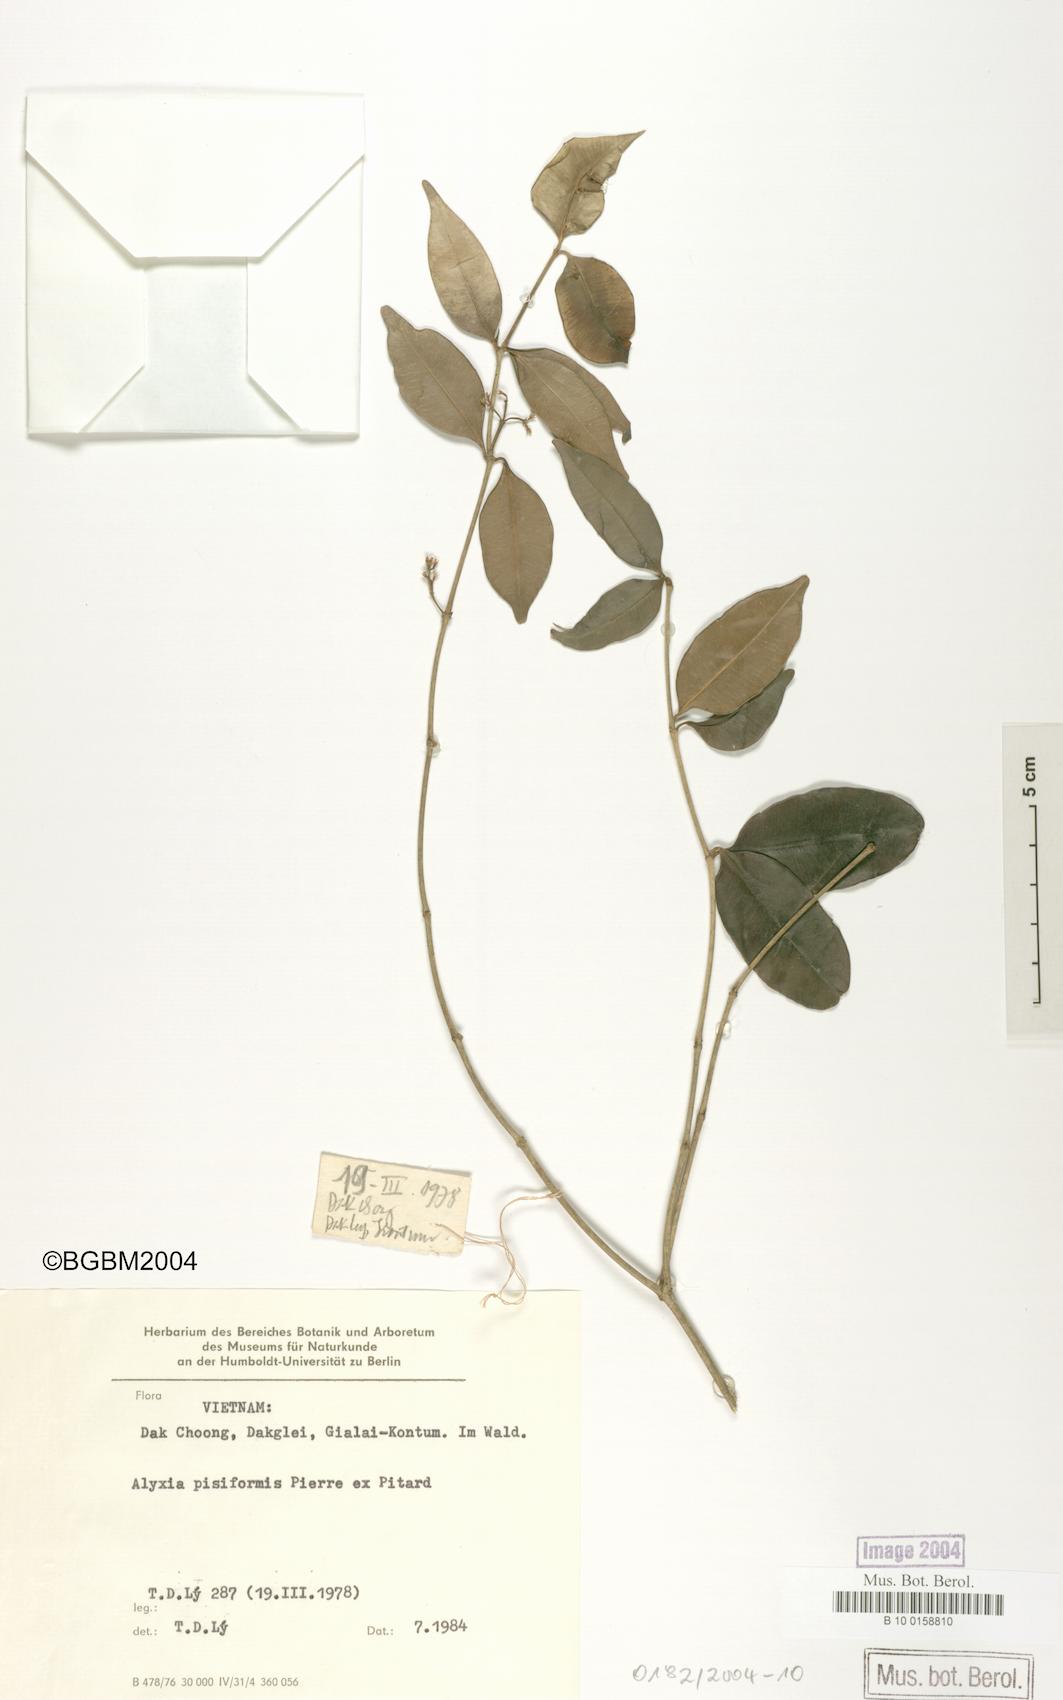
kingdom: Plantae
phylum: Tracheophyta
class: Magnoliopsida
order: Gentianales
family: Apocynaceae
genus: Alyxia
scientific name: Alyxia reinwardtii
